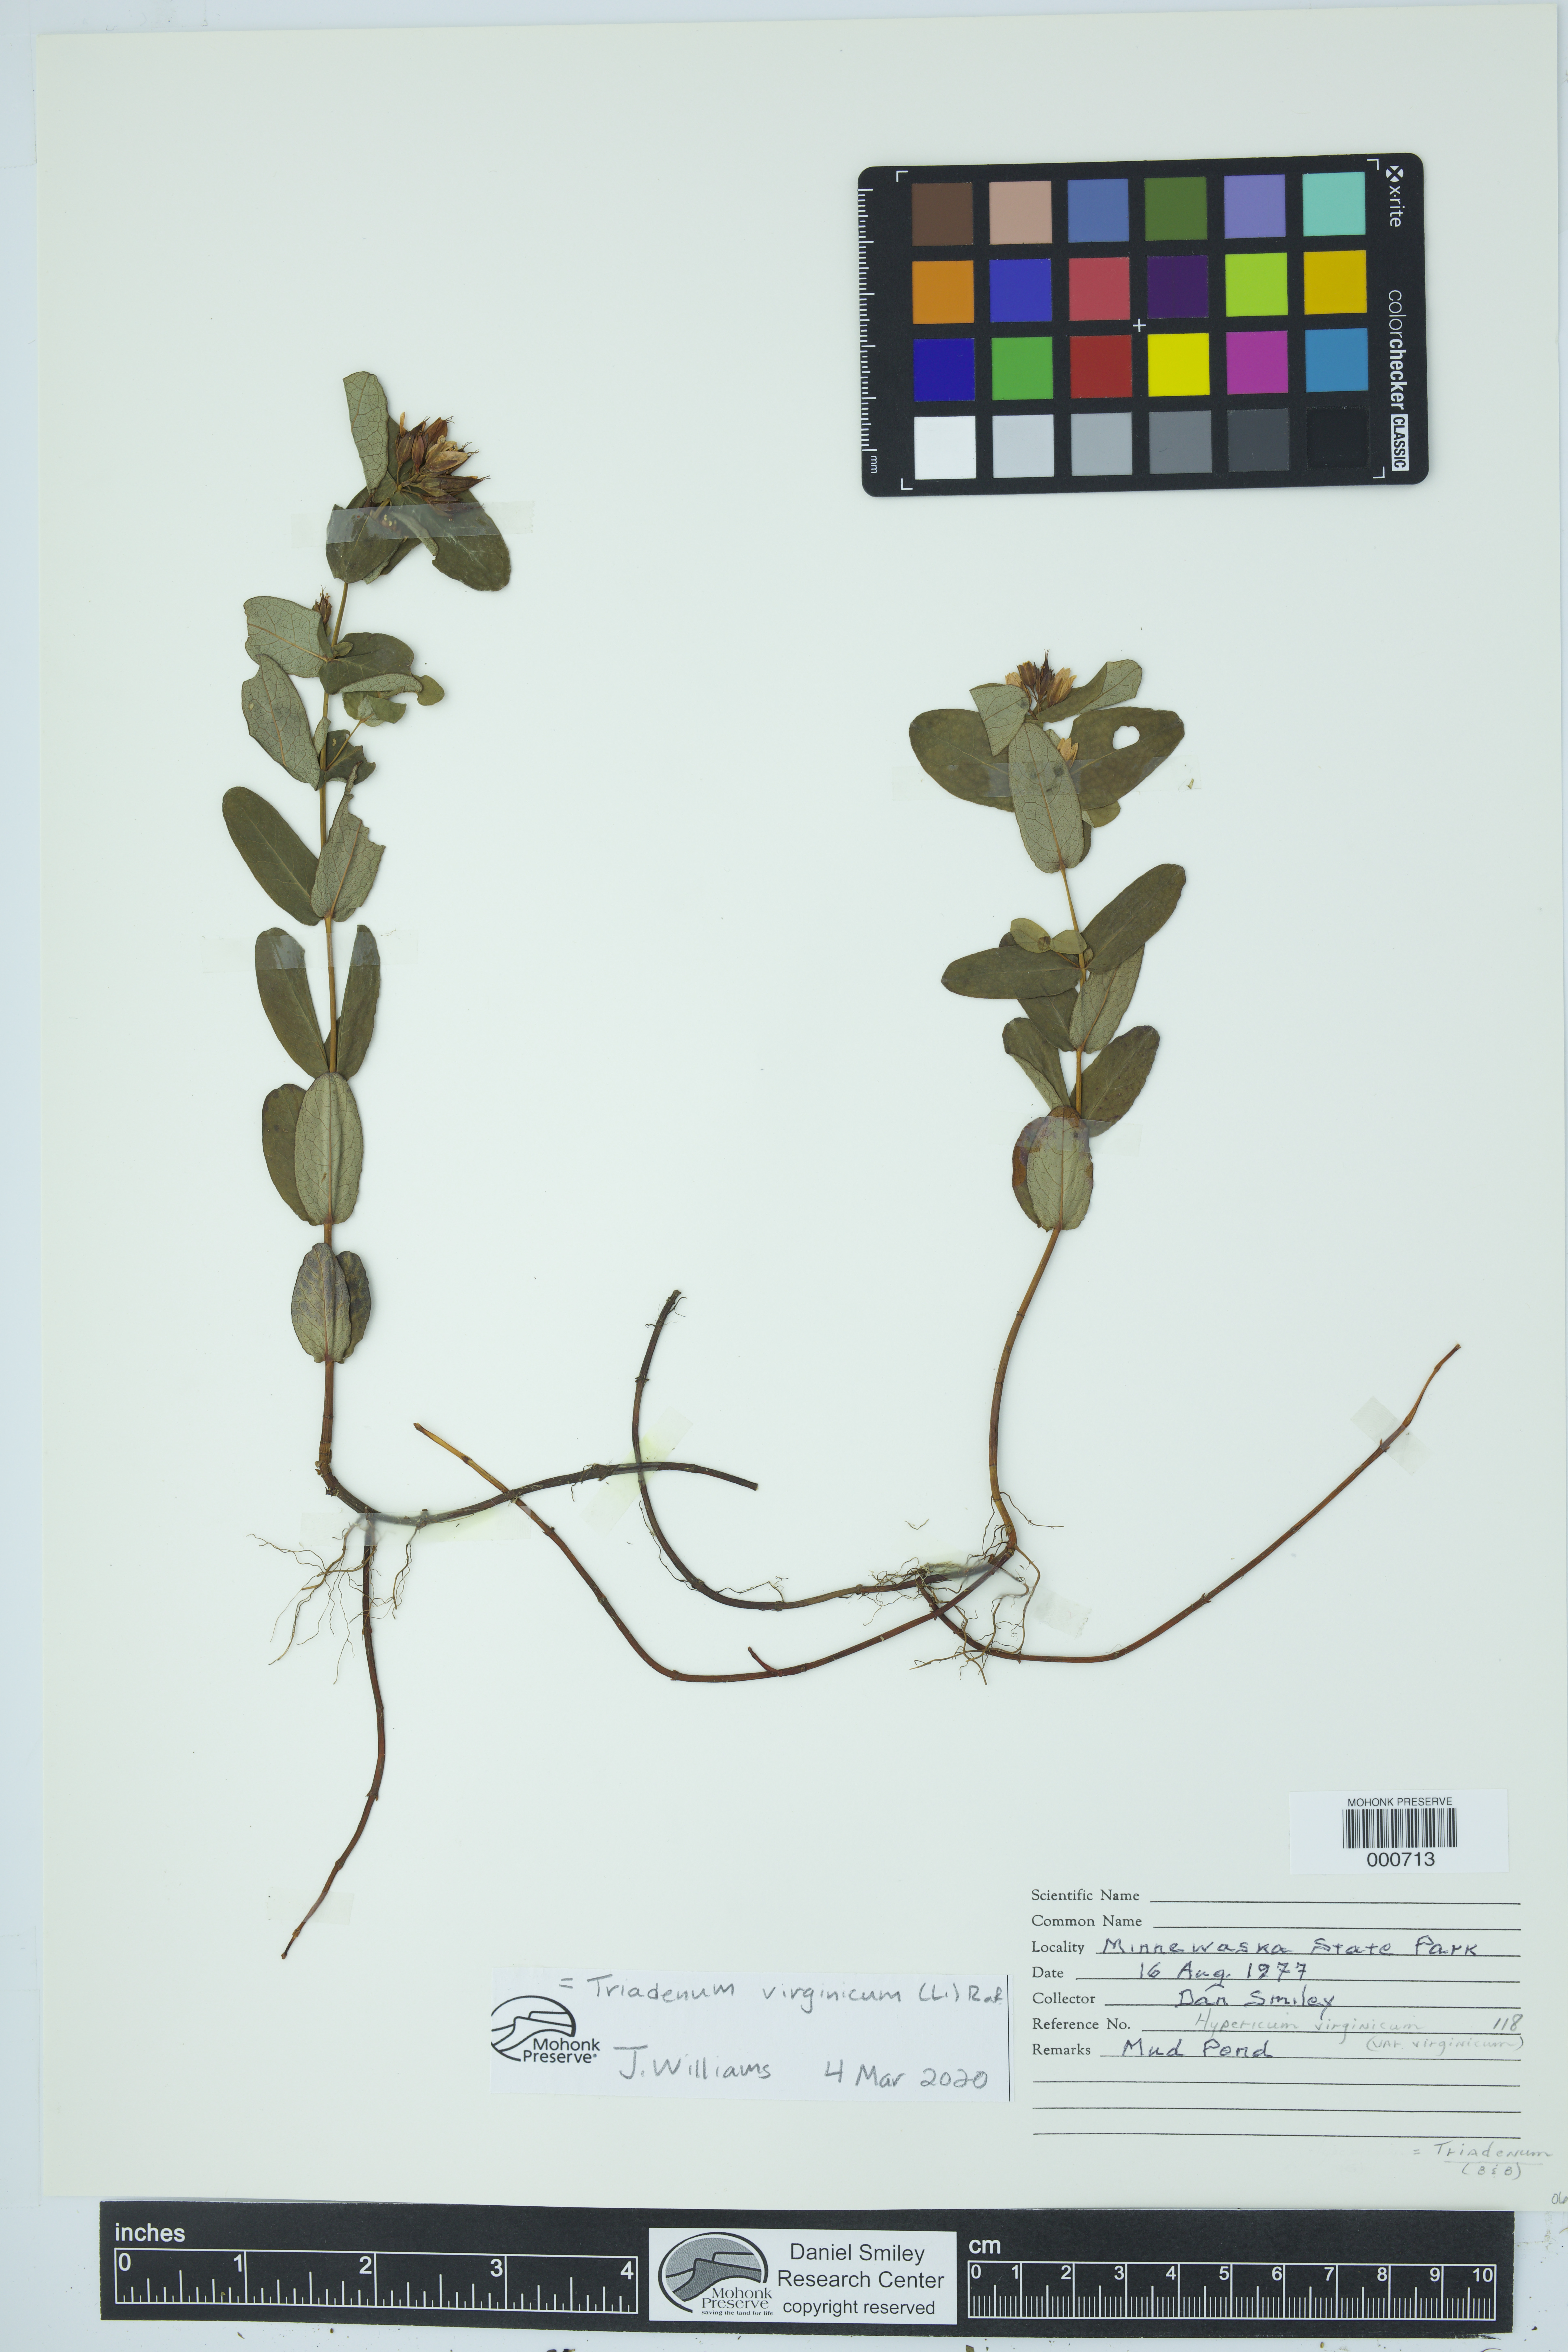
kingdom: Plantae
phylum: Tracheophyta
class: Magnoliopsida
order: Malpighiales
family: Hypericaceae
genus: Triadenum
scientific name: Triadenum virginicum
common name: Marsh st. john's-wort
